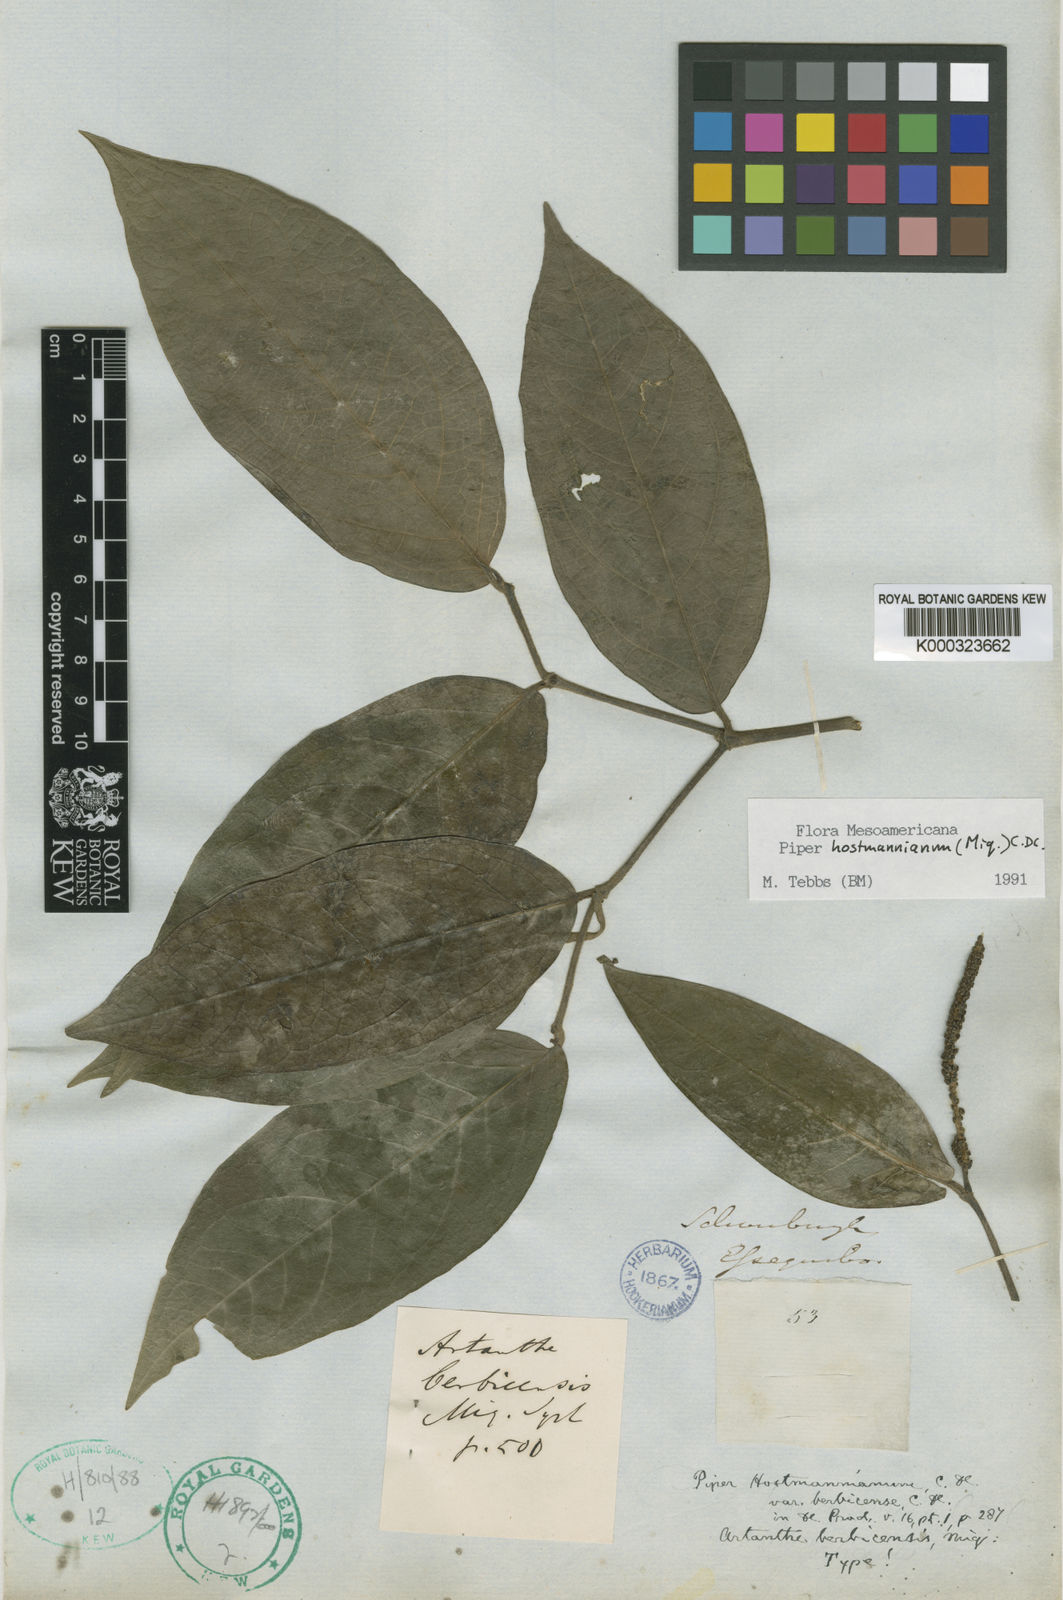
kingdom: Plantae
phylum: Tracheophyta
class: Magnoliopsida
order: Piperales
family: Piperaceae
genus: Piper
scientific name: Piper hostmannianum
